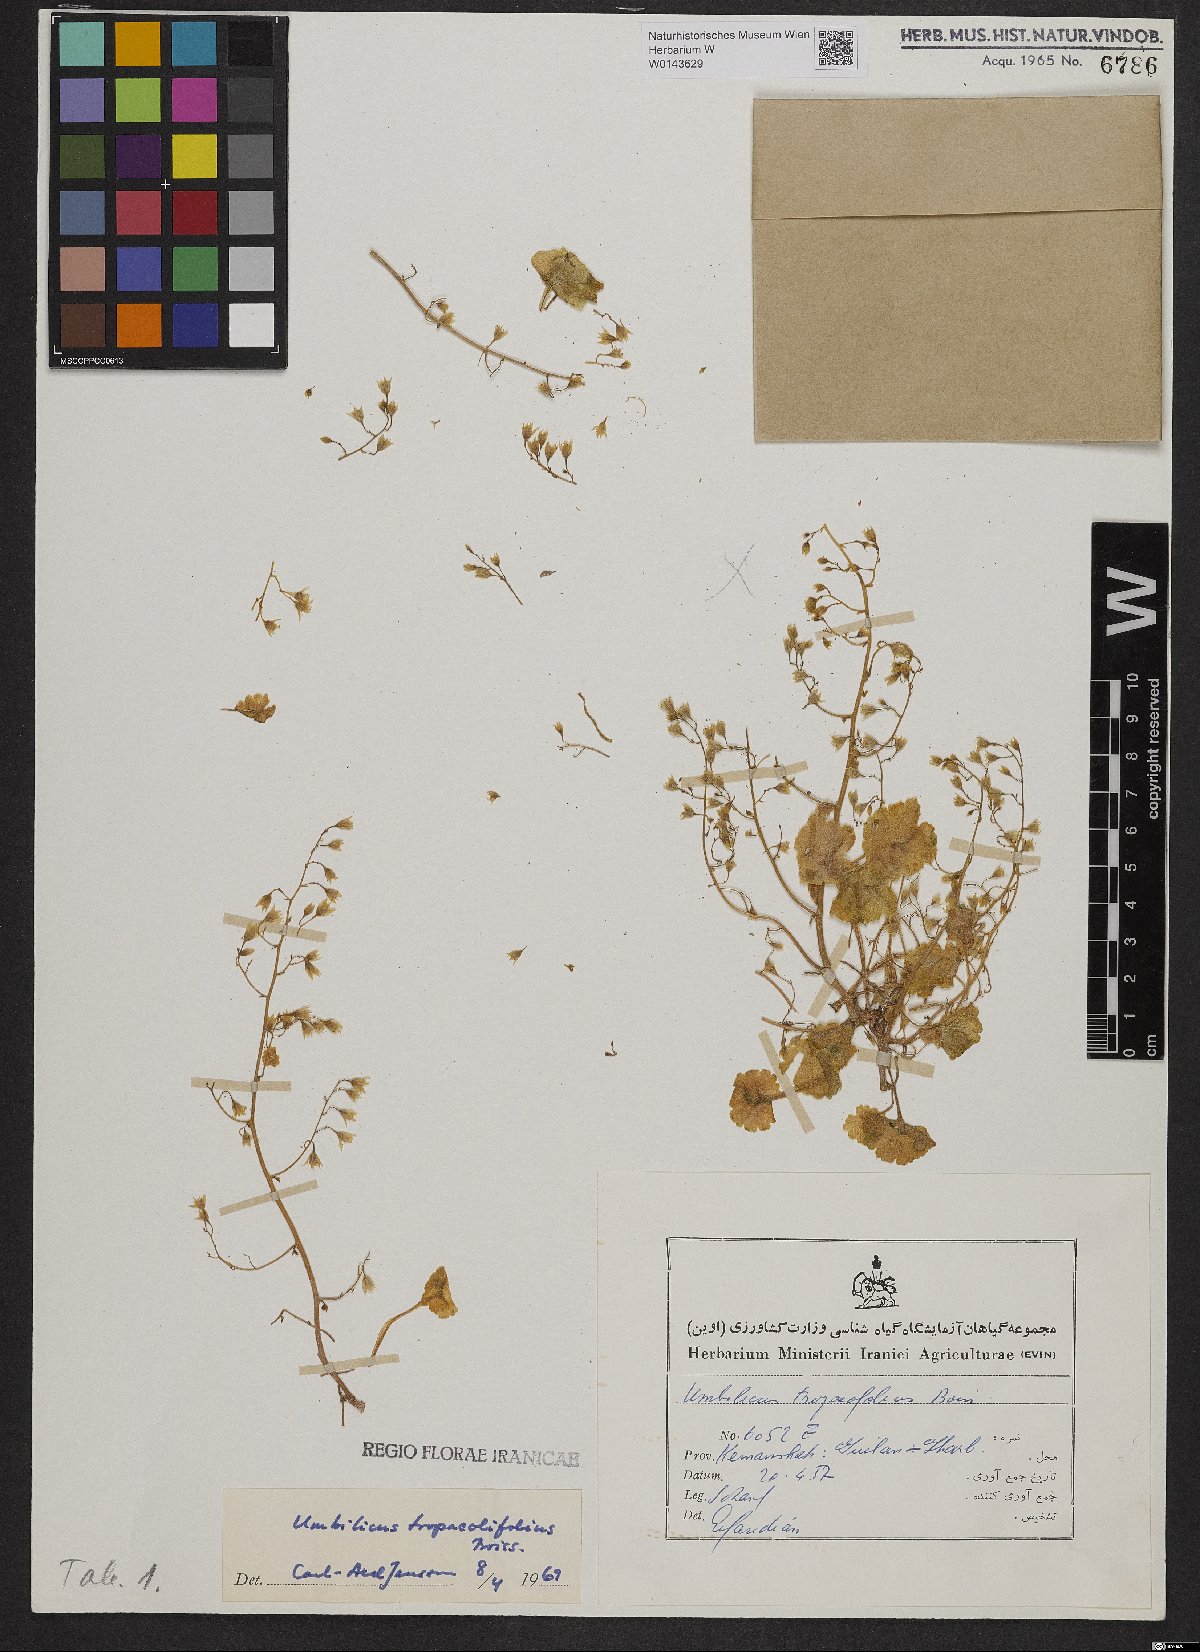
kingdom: Plantae
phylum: Tracheophyta
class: Magnoliopsida
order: Saxifragales
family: Crassulaceae
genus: Umbilicus
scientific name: Umbilicus tropaeolifolius
